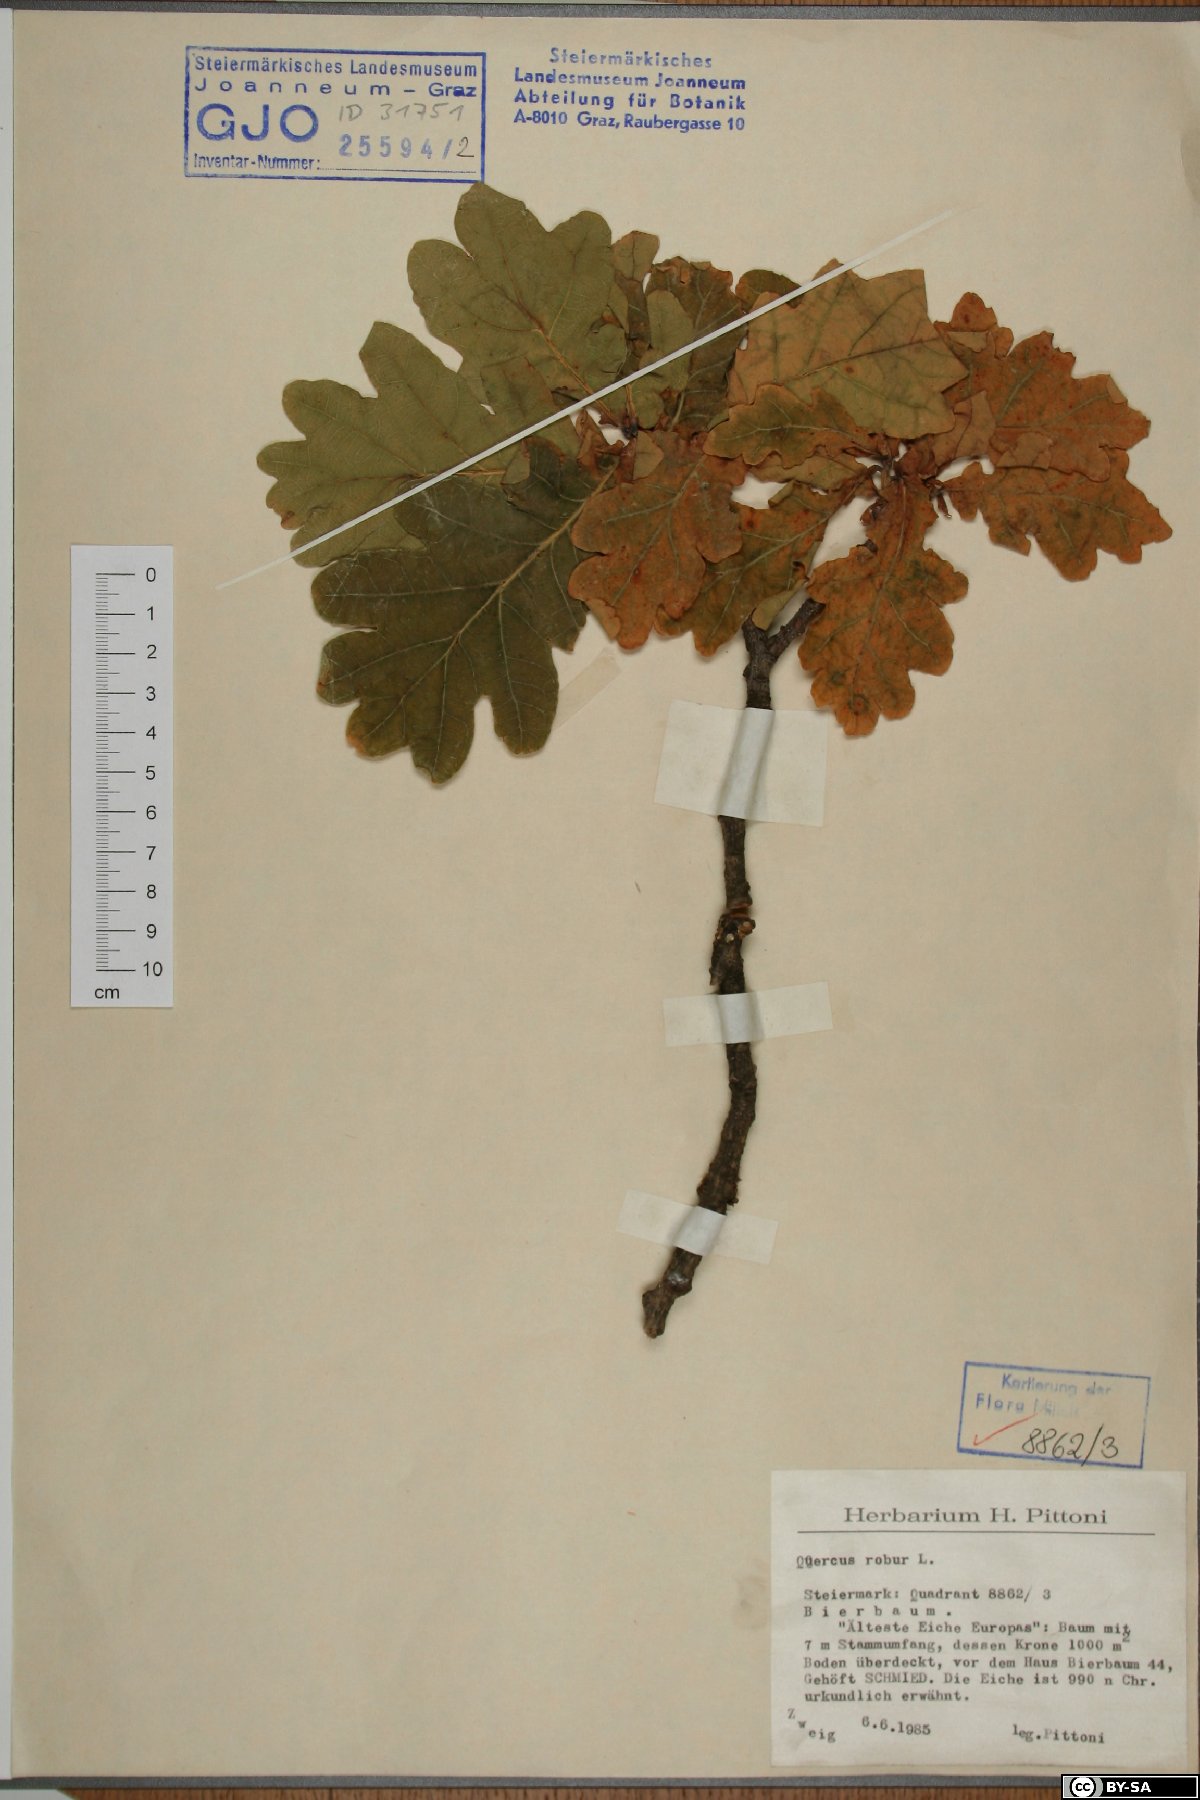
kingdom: Plantae
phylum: Tracheophyta
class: Magnoliopsida
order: Fagales
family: Fagaceae
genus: Quercus
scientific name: Quercus robur
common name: Pedunculate oak
